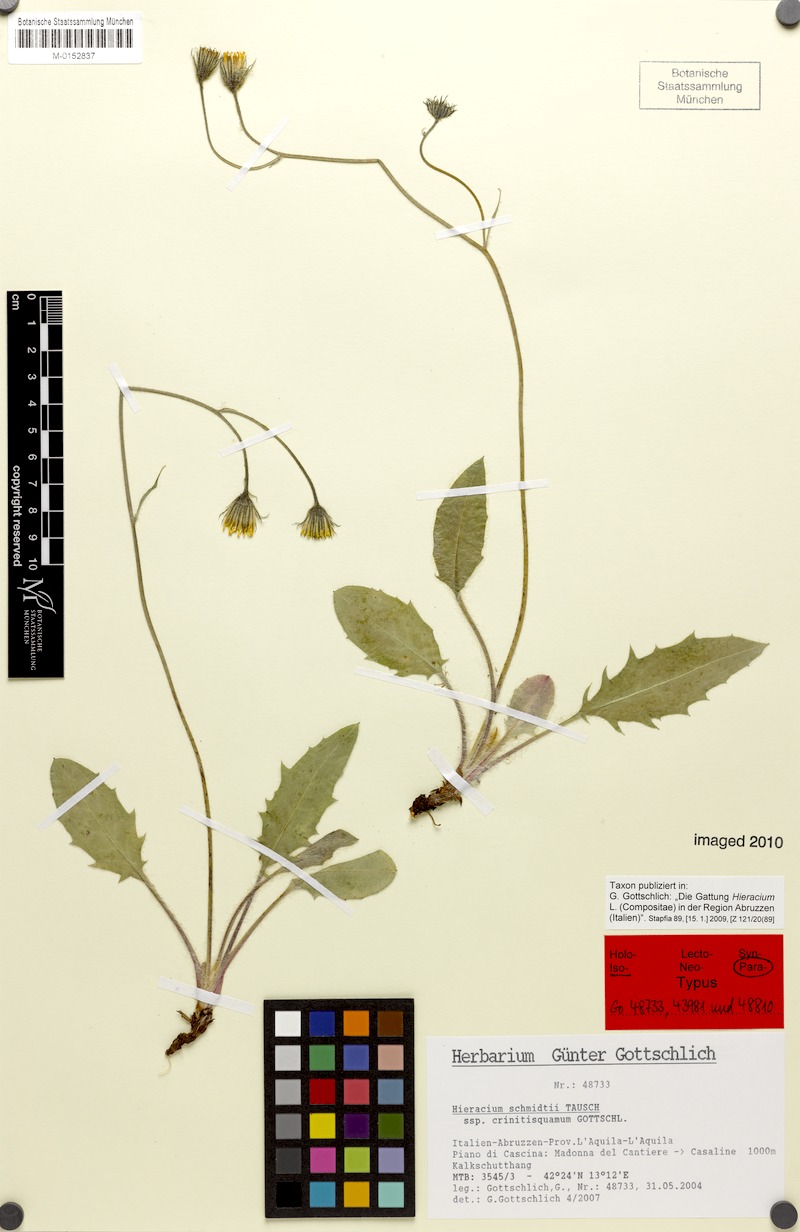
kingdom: Plantae
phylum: Tracheophyta
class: Magnoliopsida
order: Asterales
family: Asteraceae
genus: Hieracium
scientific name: Hieracium schmidtii
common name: Schmidt's hawkweed
